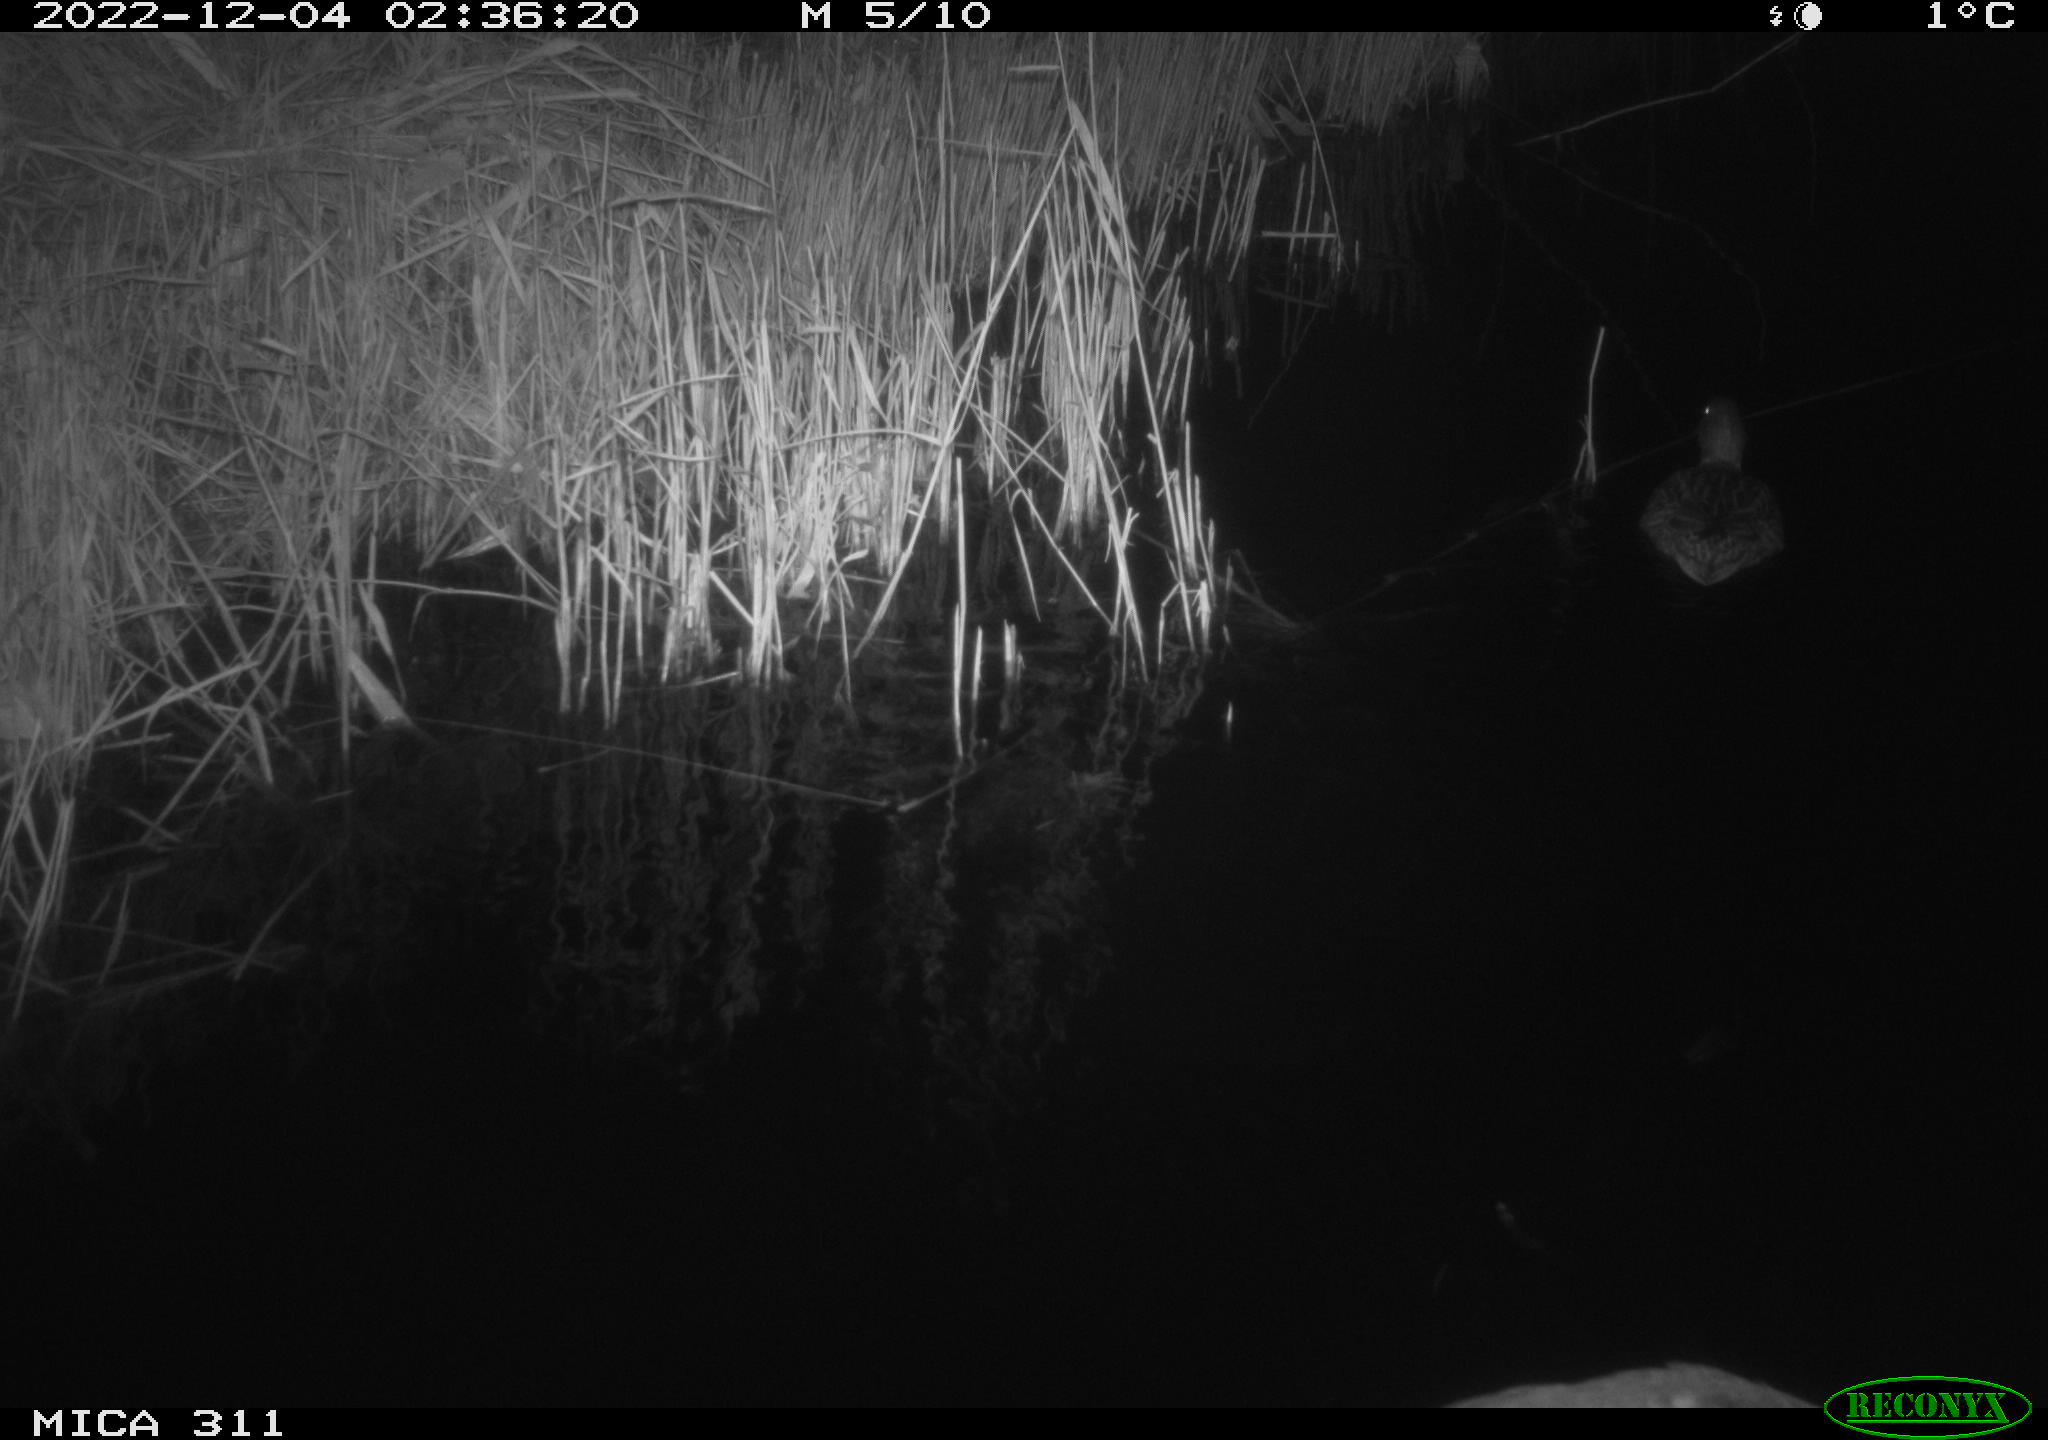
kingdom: Animalia
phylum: Chordata
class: Aves
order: Gruiformes
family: Rallidae
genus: Fulica
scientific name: Fulica atra
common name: Eurasian coot
